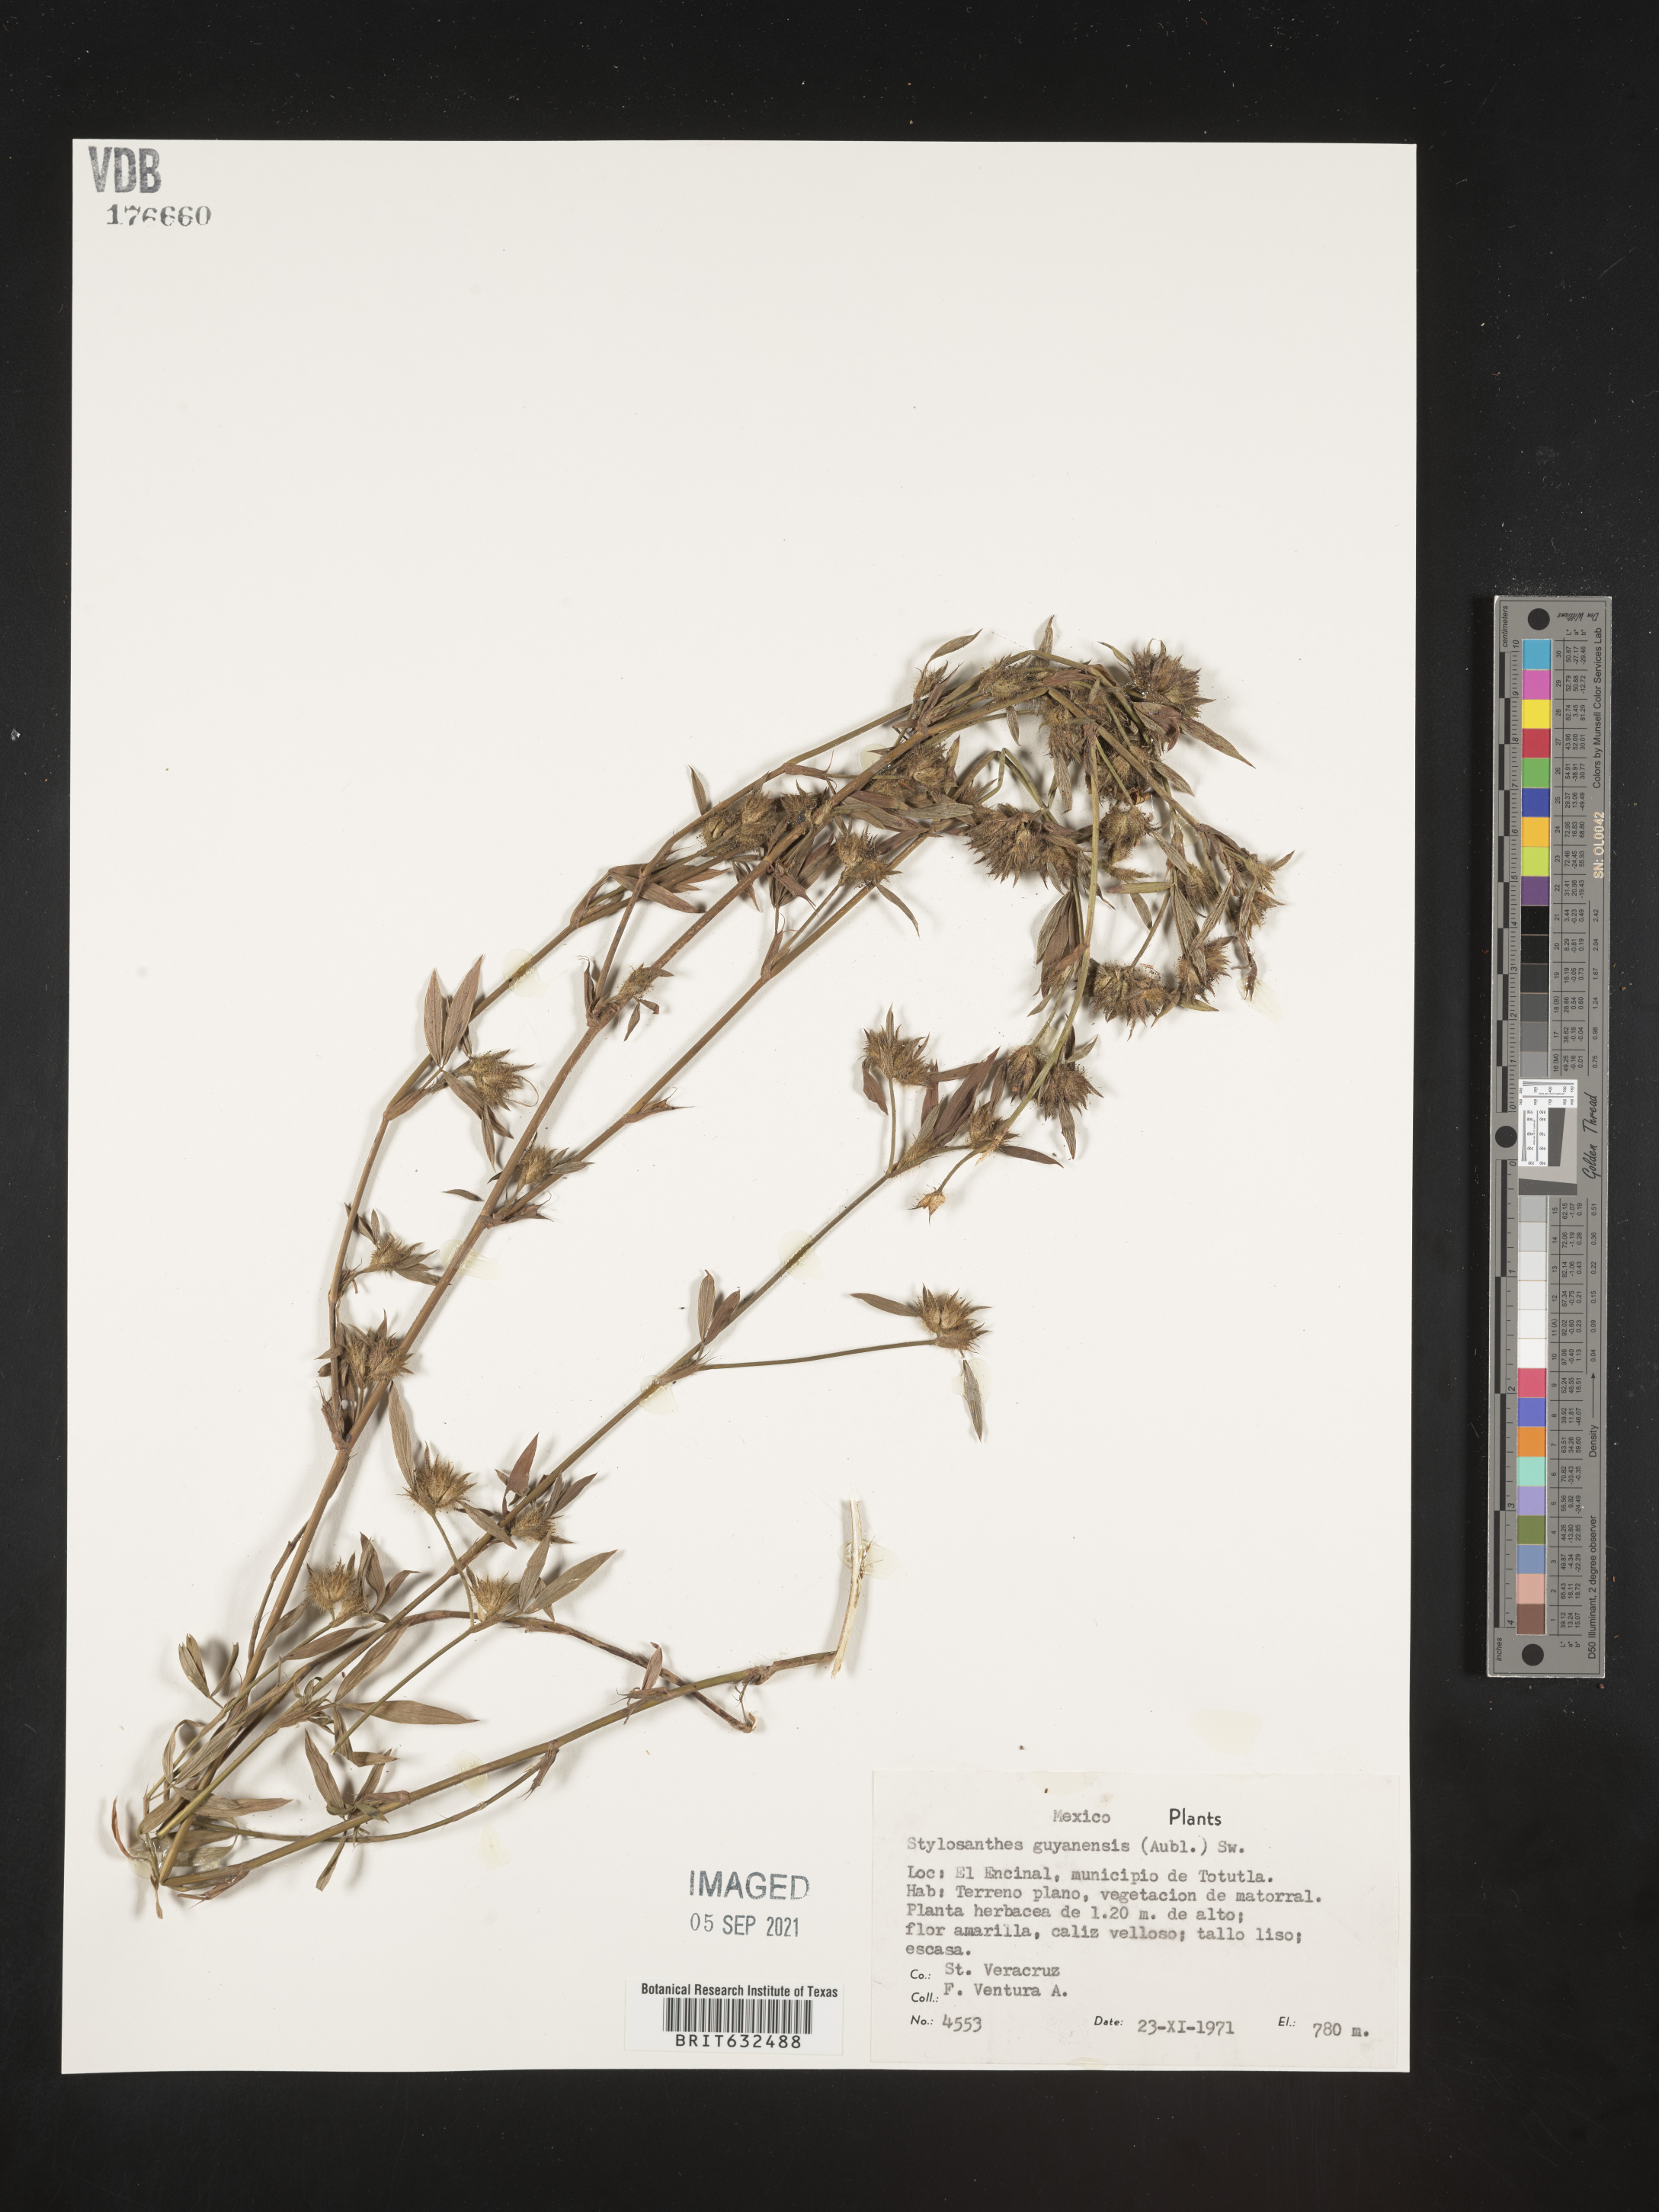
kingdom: Plantae
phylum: Tracheophyta
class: Magnoliopsida
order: Fabales
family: Fabaceae
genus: Stylosanthes
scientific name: Stylosanthes guianensis
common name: Pencil flower
